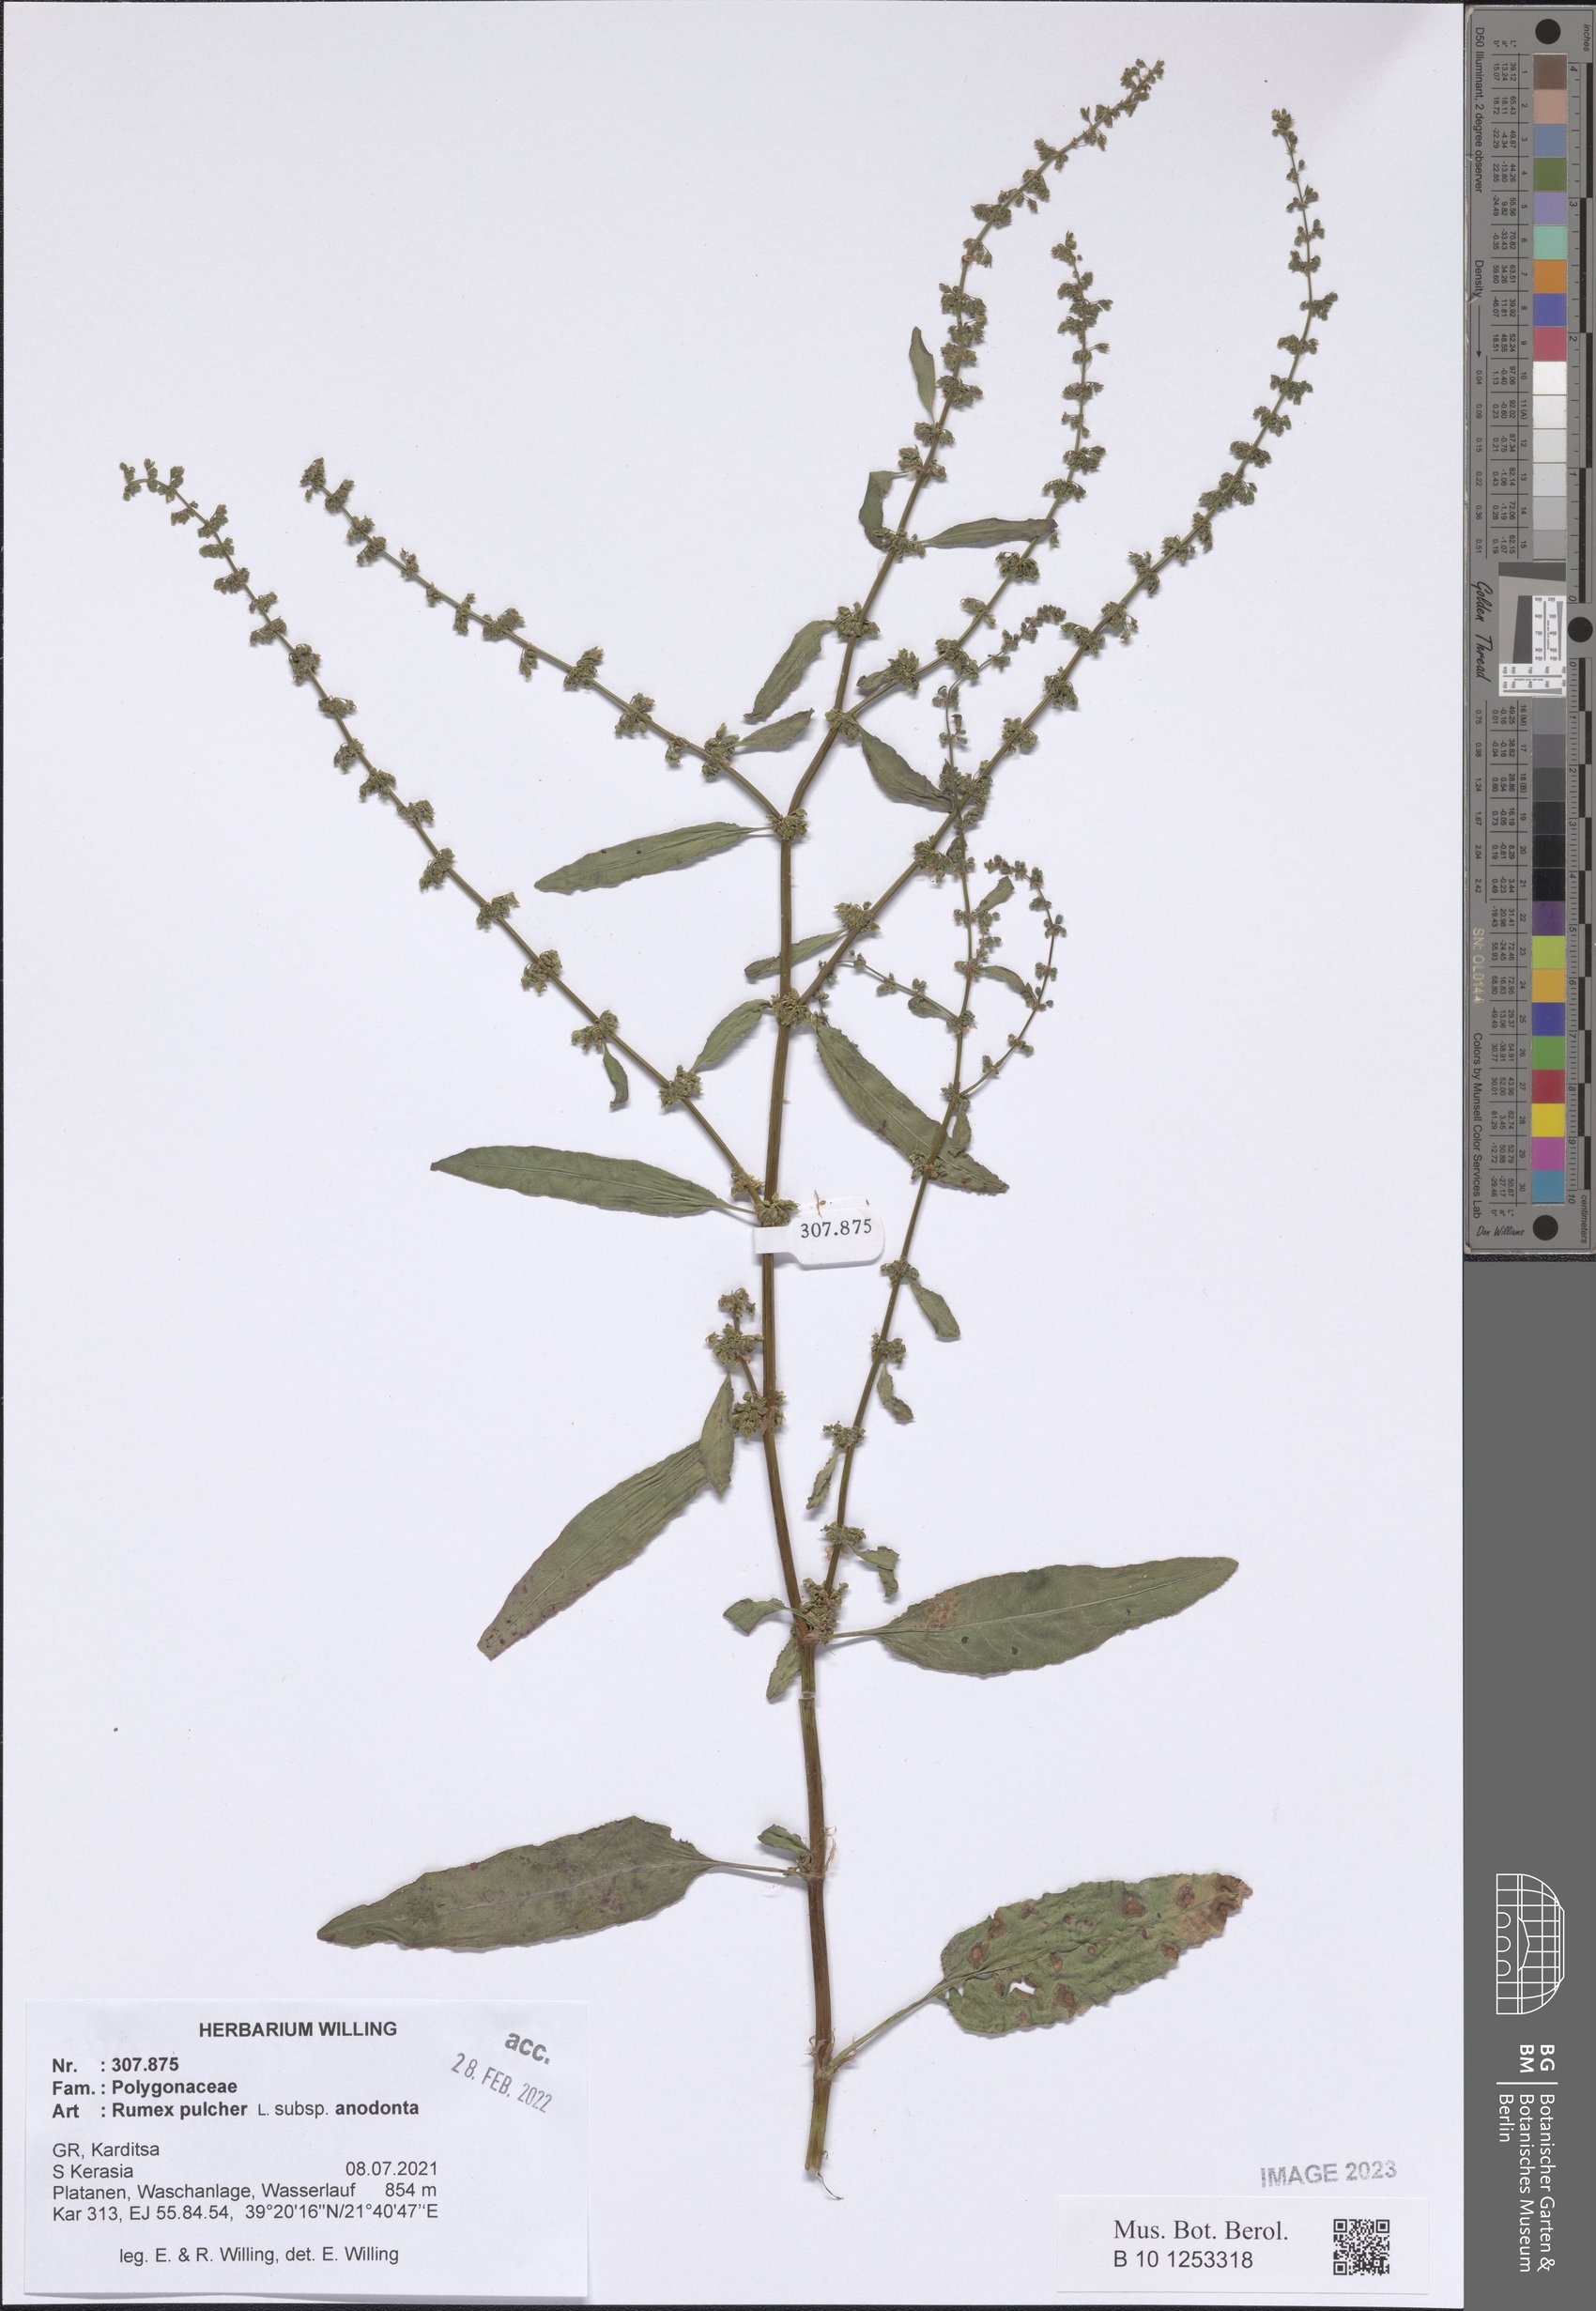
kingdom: Plantae
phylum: Tracheophyta
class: Magnoliopsida
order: Caryophyllales
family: Polygonaceae
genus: Rumex
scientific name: Rumex pulcher
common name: Fiddle dock
